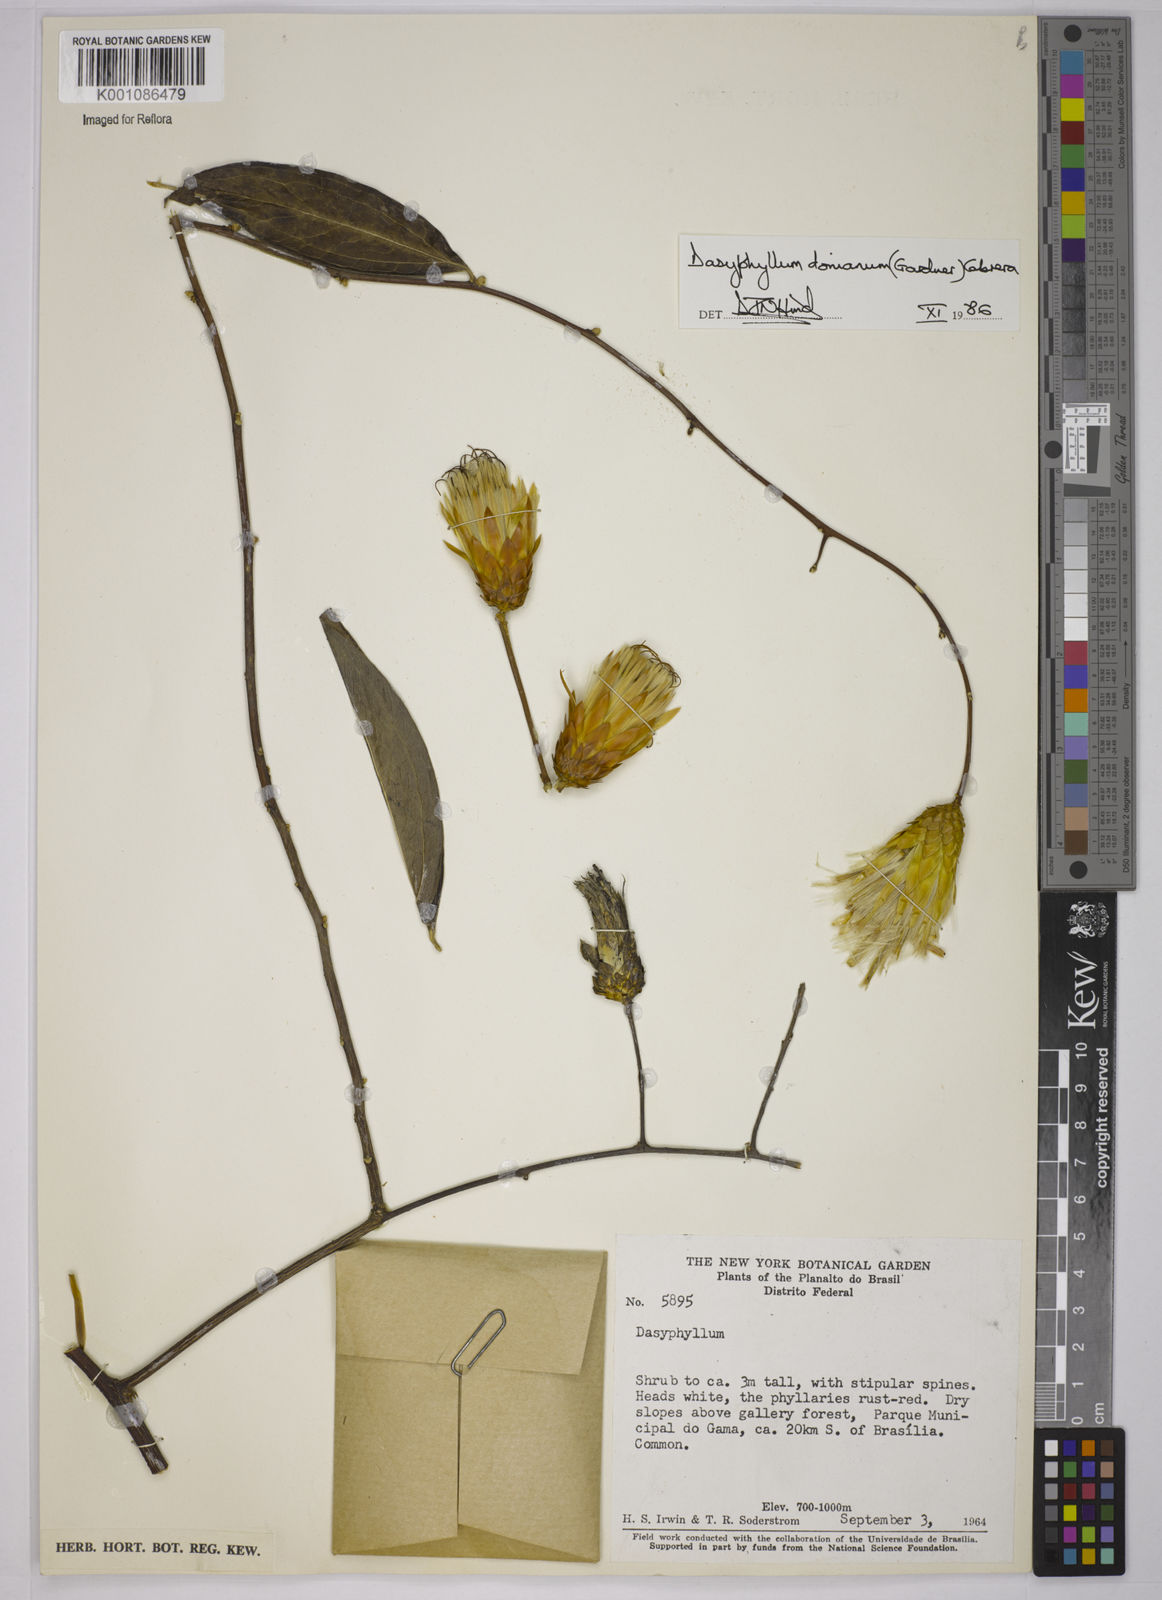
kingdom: Plantae
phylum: Tracheophyta
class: Magnoliopsida
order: Asterales
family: Asteraceae
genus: Dasyphyllum
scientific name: Dasyphyllum donianum
